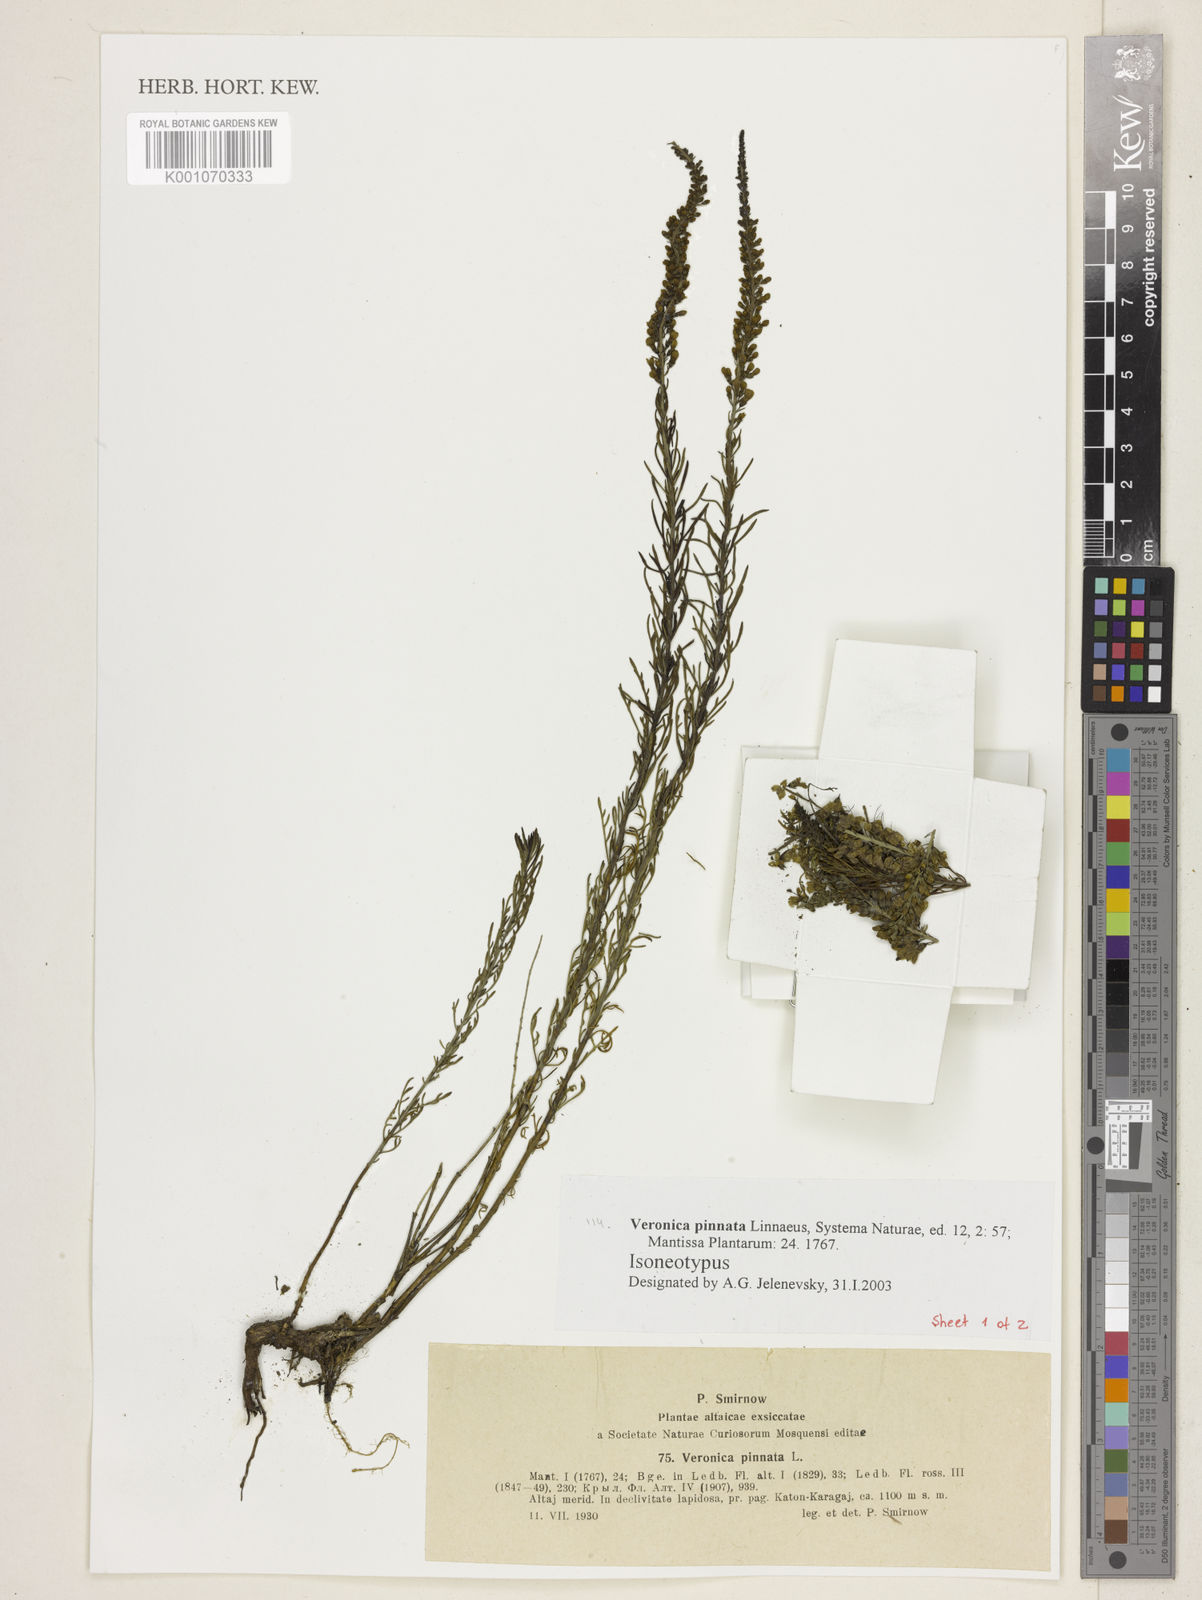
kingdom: Plantae
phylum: Tracheophyta
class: Magnoliopsida
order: Lamiales
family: Plantaginaceae
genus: Veronica
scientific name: Veronica pinnata
